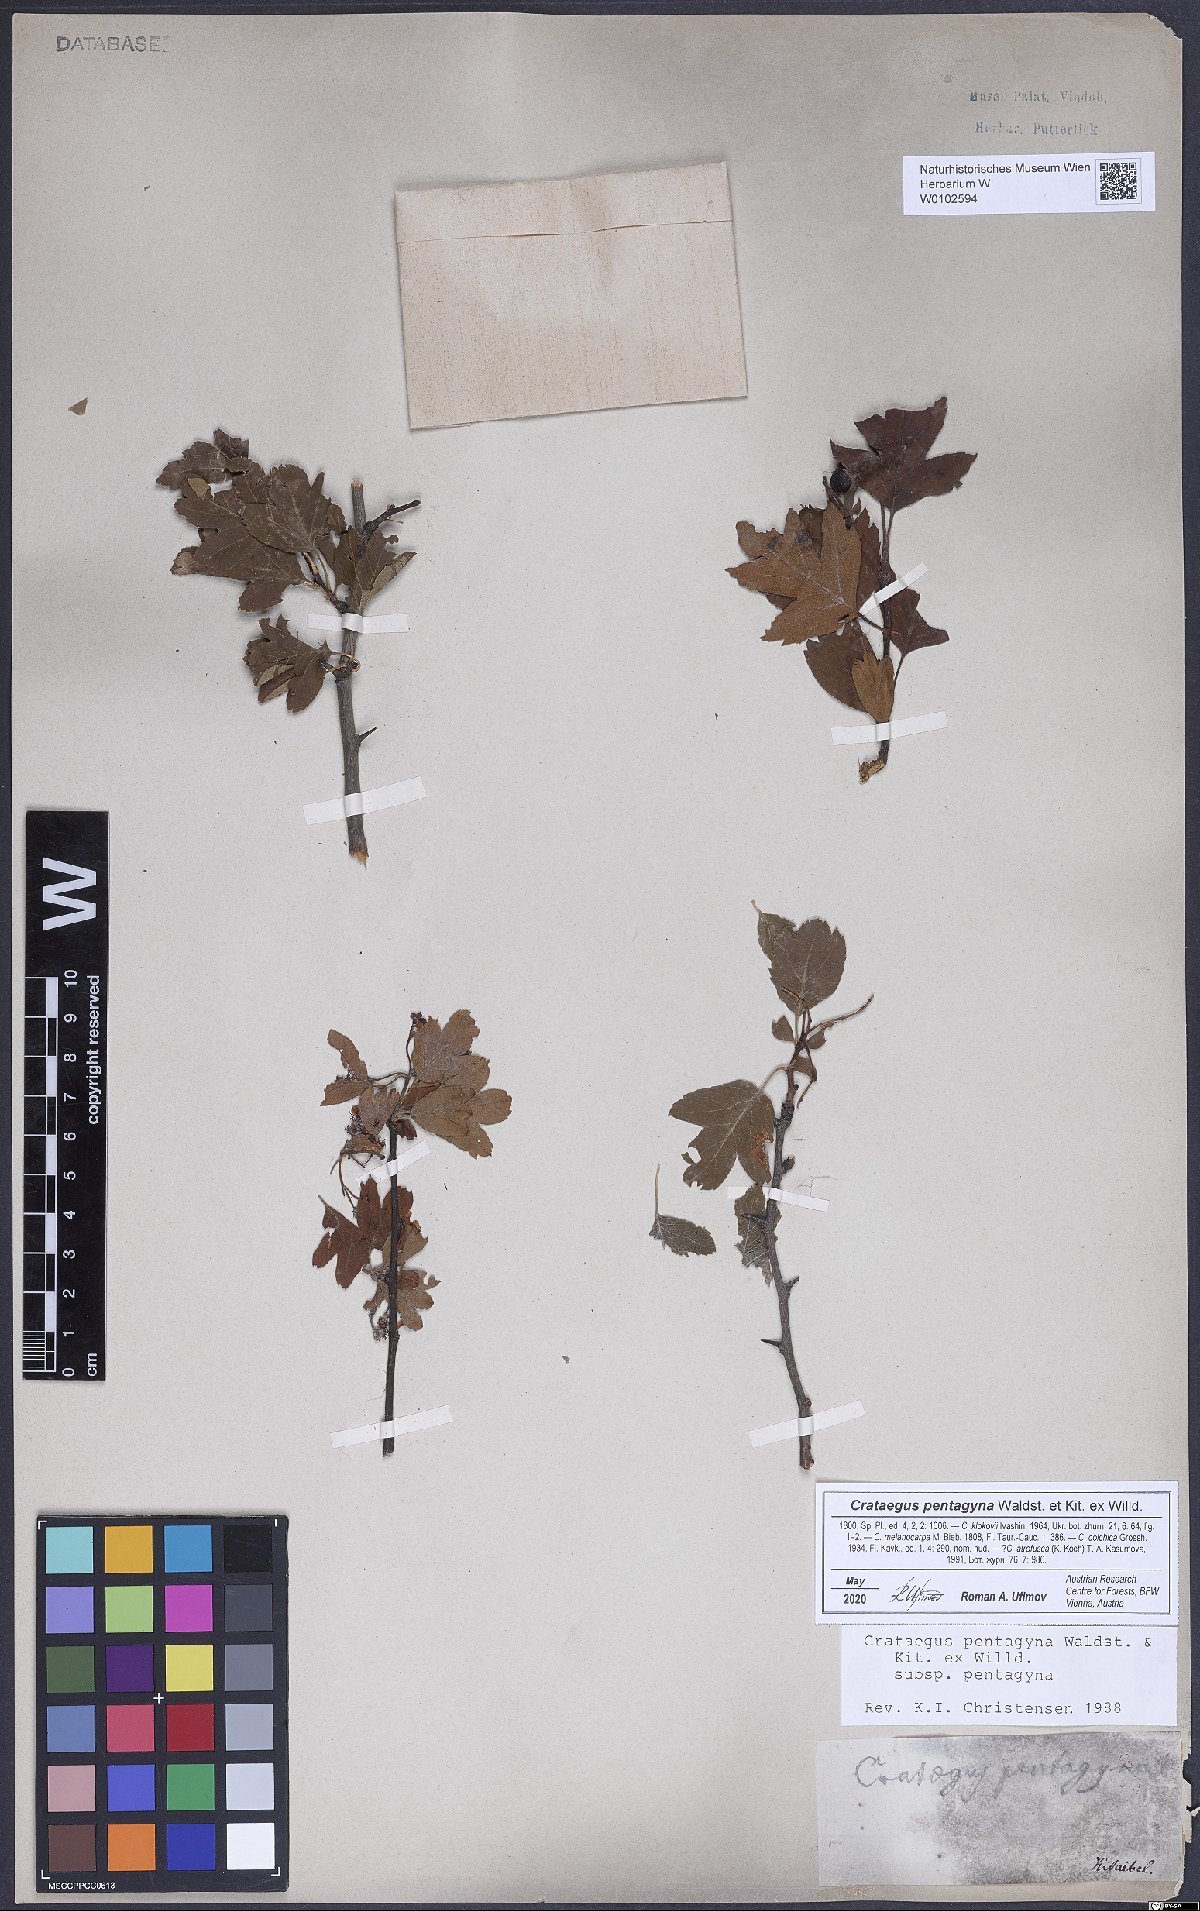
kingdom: Plantae
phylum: Tracheophyta
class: Magnoliopsida
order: Rosales
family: Rosaceae
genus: Crataegus
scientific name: Crataegus pentagyna
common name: Small-flowered black hawthorn
